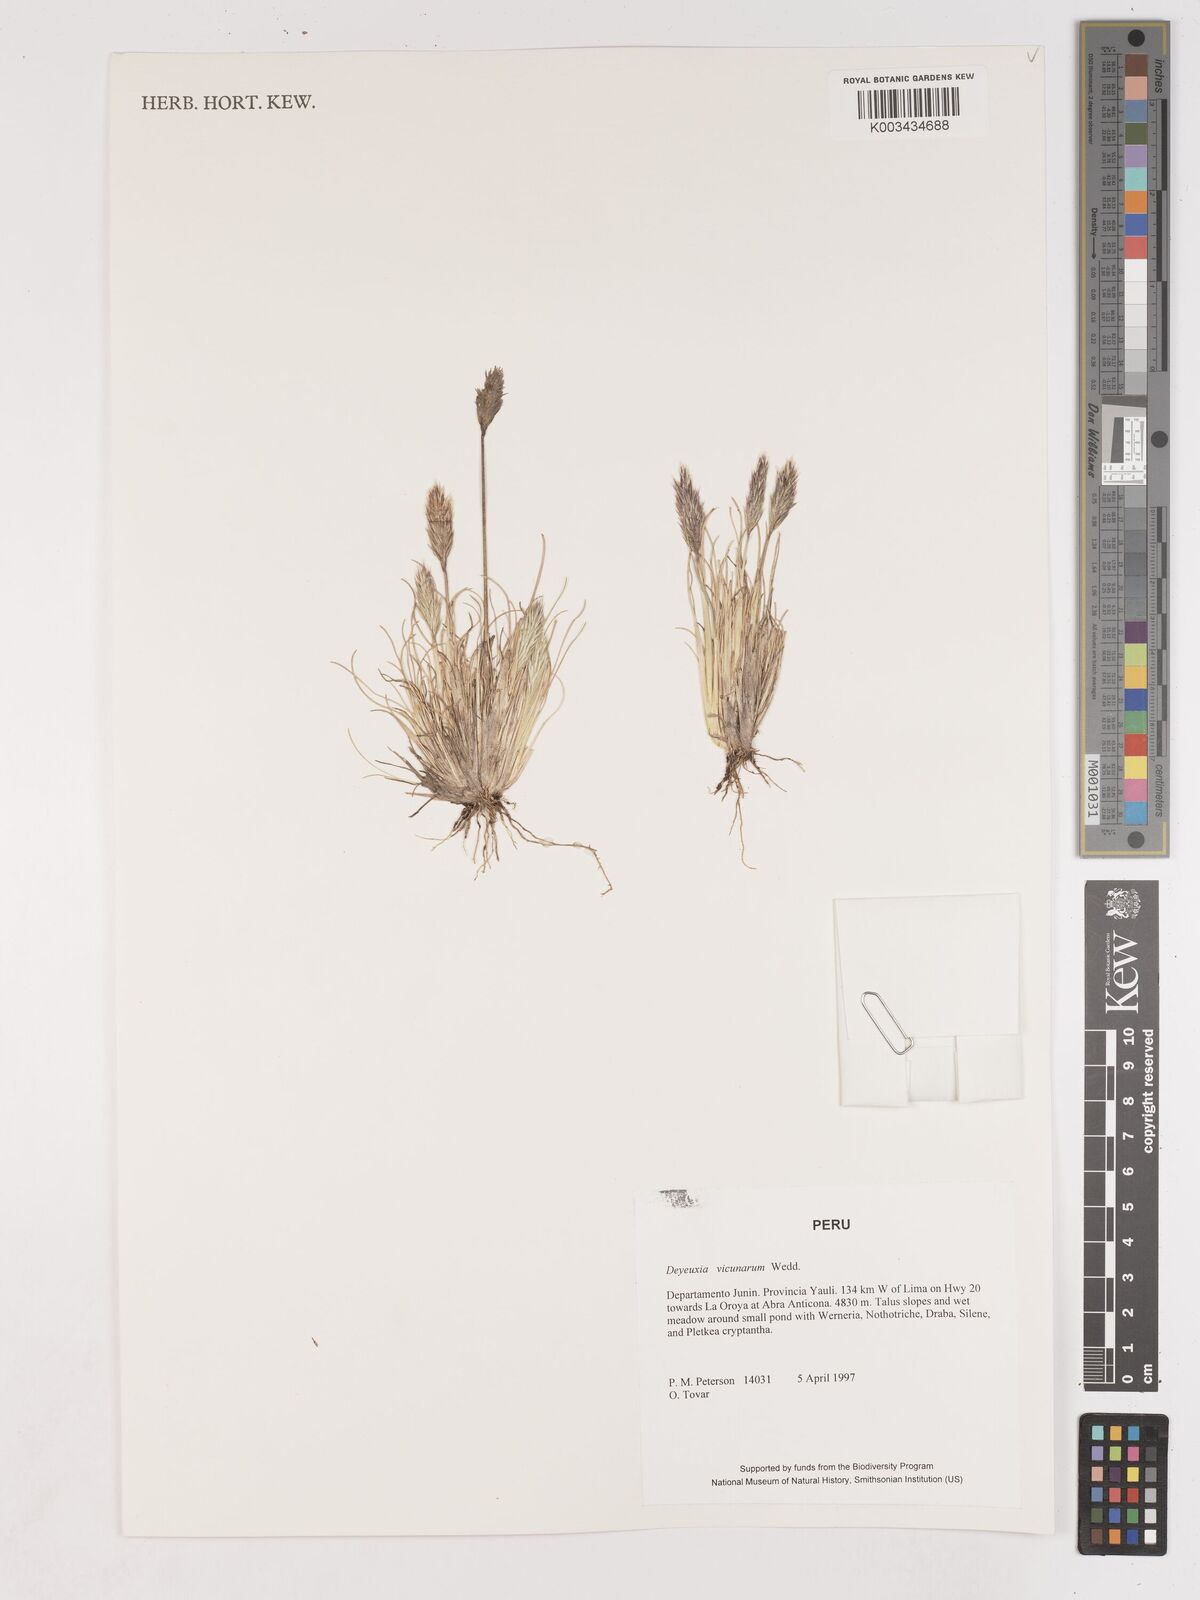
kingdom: Plantae
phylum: Tracheophyta
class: Liliopsida
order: Poales
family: Poaceae
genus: Cinnagrostis
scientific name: Cinnagrostis vicunarum
